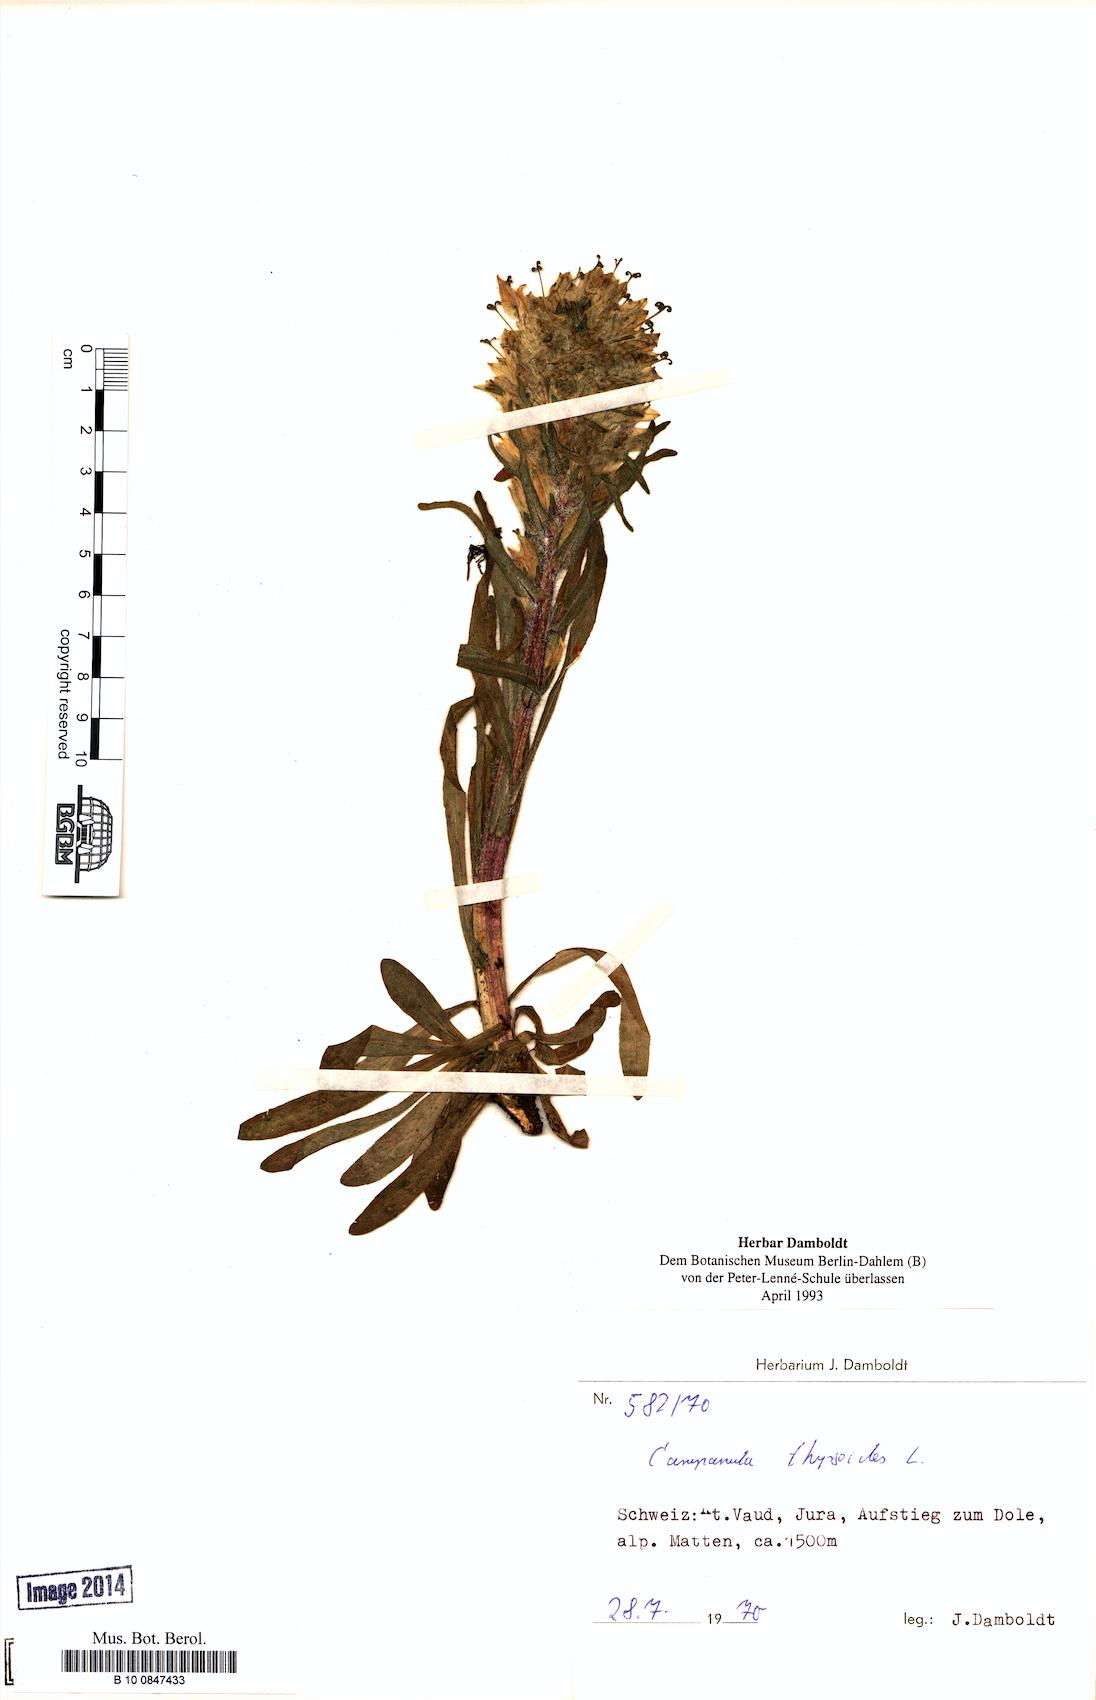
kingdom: Plantae
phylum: Tracheophyta
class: Magnoliopsida
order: Asterales
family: Campanulaceae
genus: Campanula
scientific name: Campanula thyrsoides
